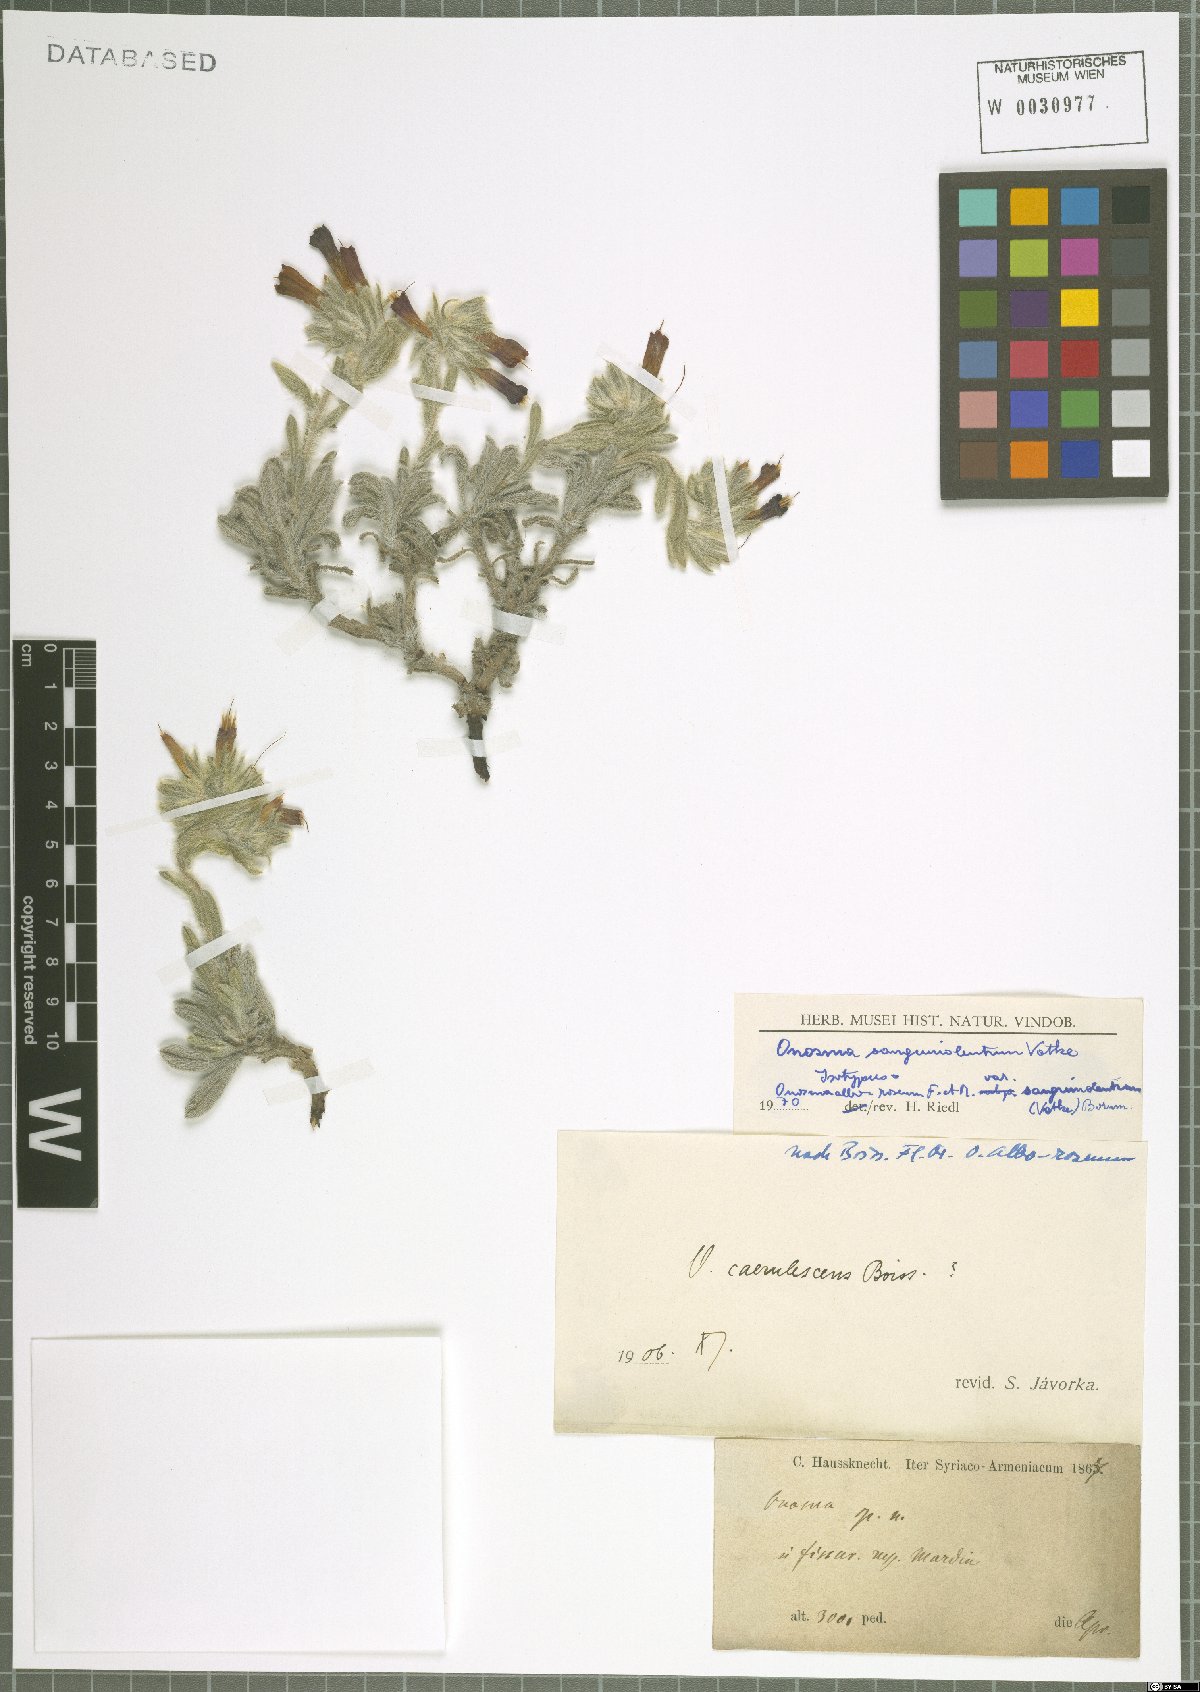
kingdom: Plantae
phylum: Tracheophyta
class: Magnoliopsida
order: Boraginales
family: Boraginaceae
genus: Onosma
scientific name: Onosma sanguinolenta
